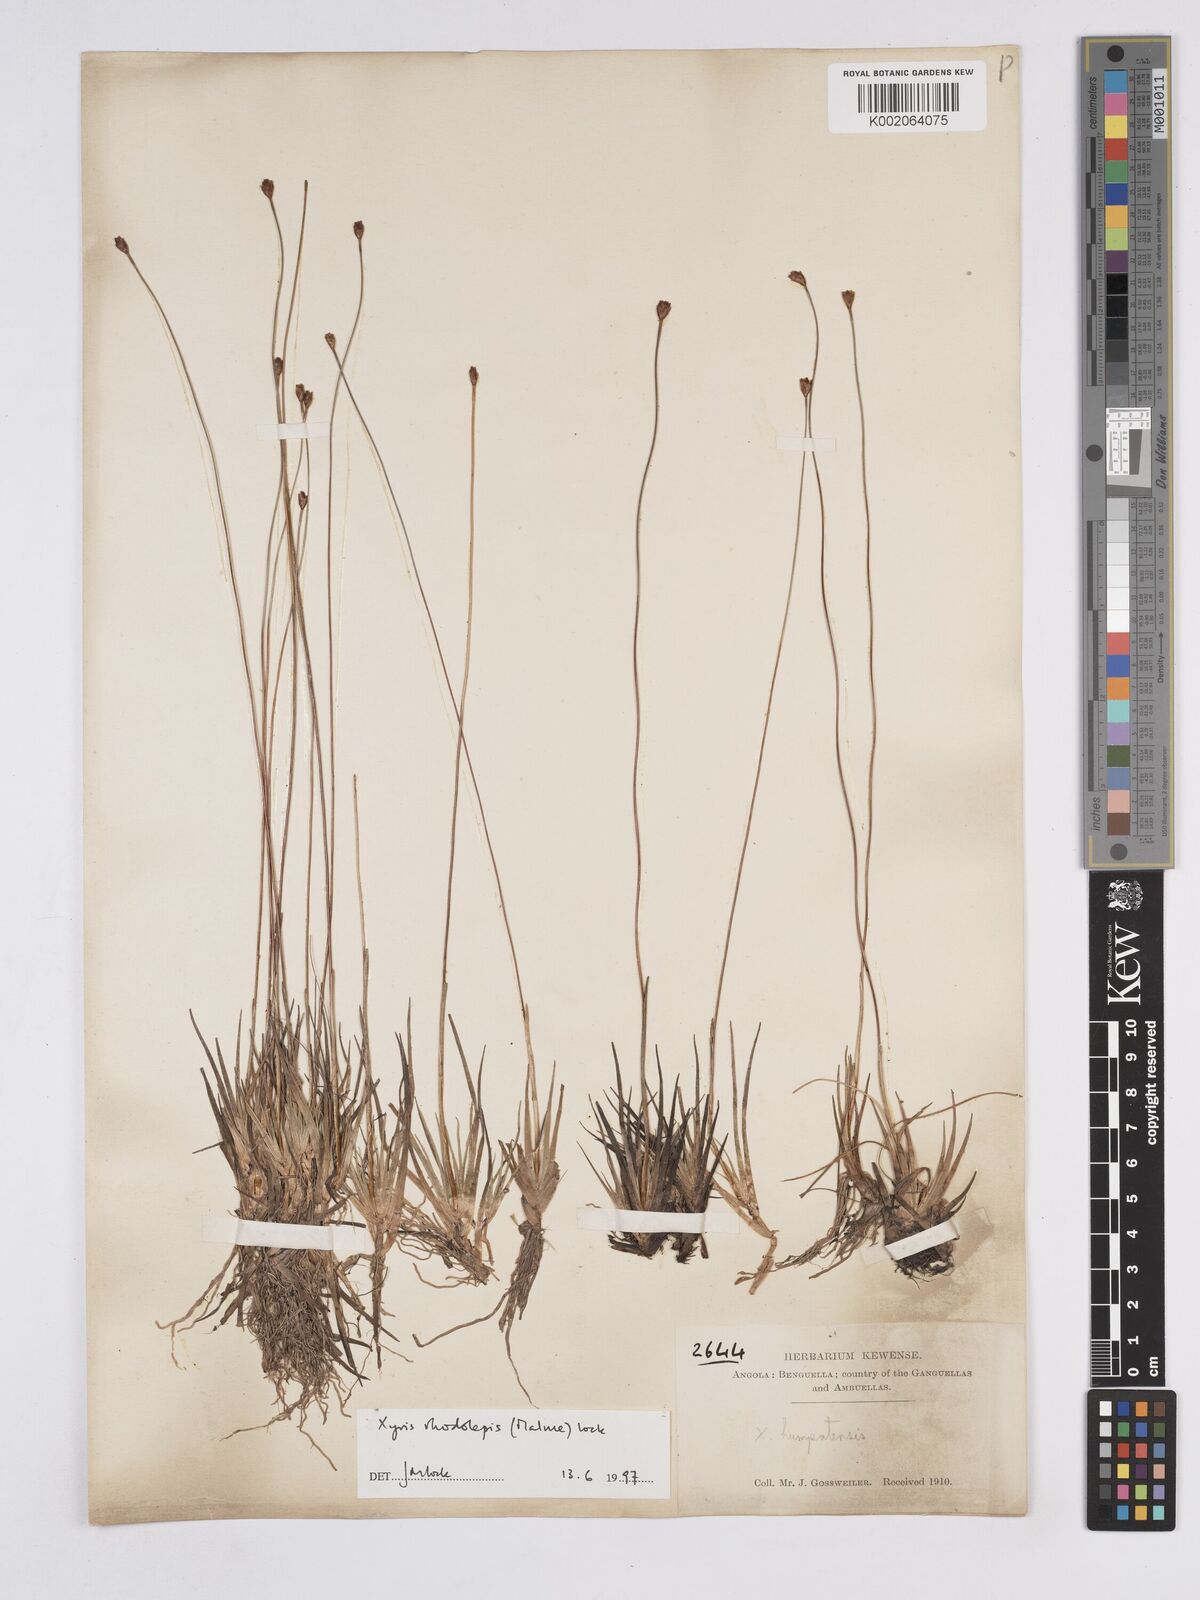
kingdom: Plantae
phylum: Tracheophyta
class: Liliopsida
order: Poales
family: Xyridaceae
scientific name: Xyridaceae
